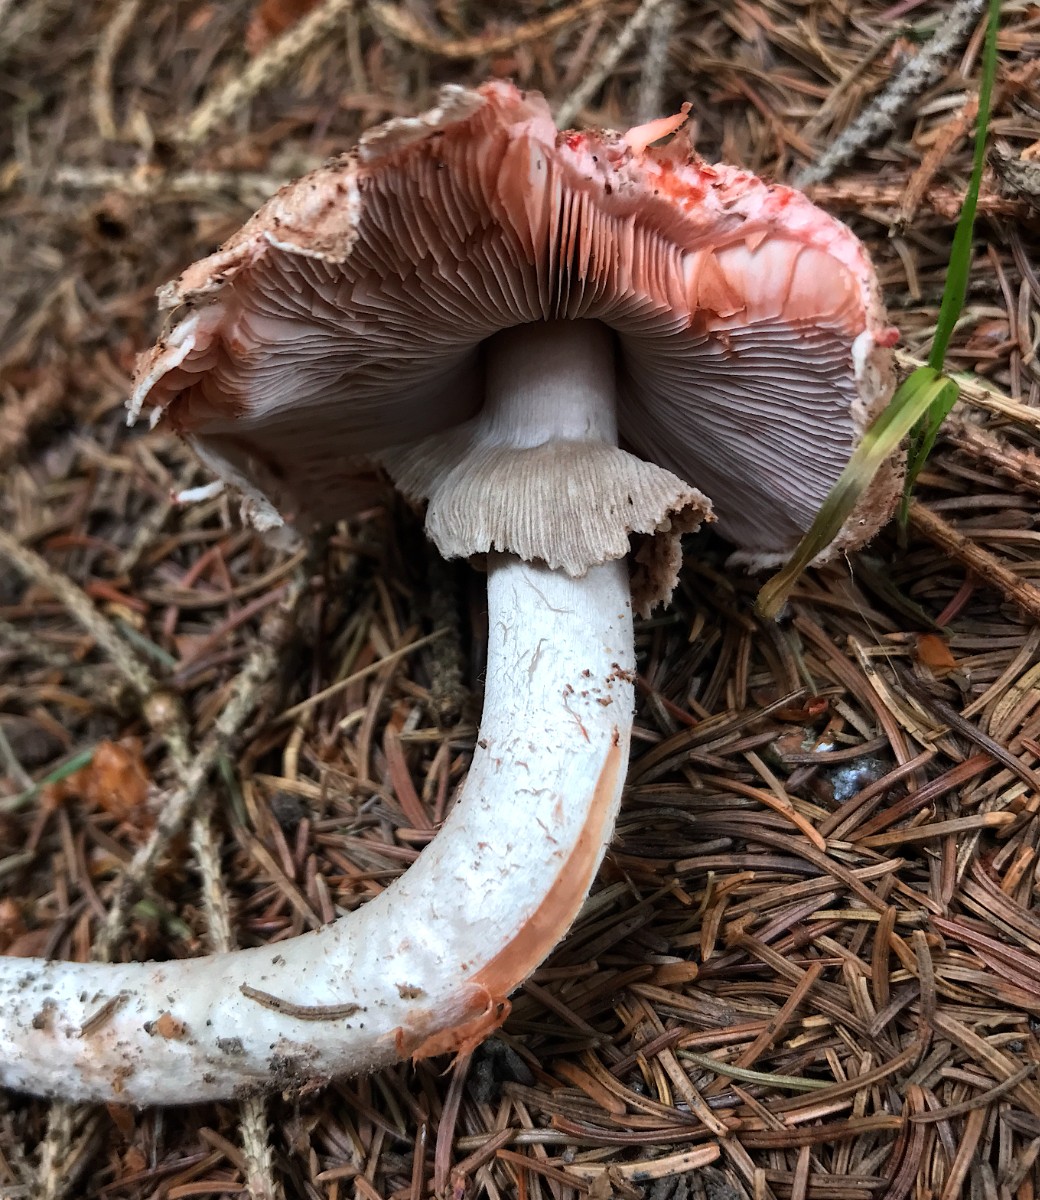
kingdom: Fungi
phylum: Basidiomycota
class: Agaricomycetes
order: Agaricales
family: Agaricaceae
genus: Agaricus
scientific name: Agaricus sylvaticus
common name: lille blod-champignon
